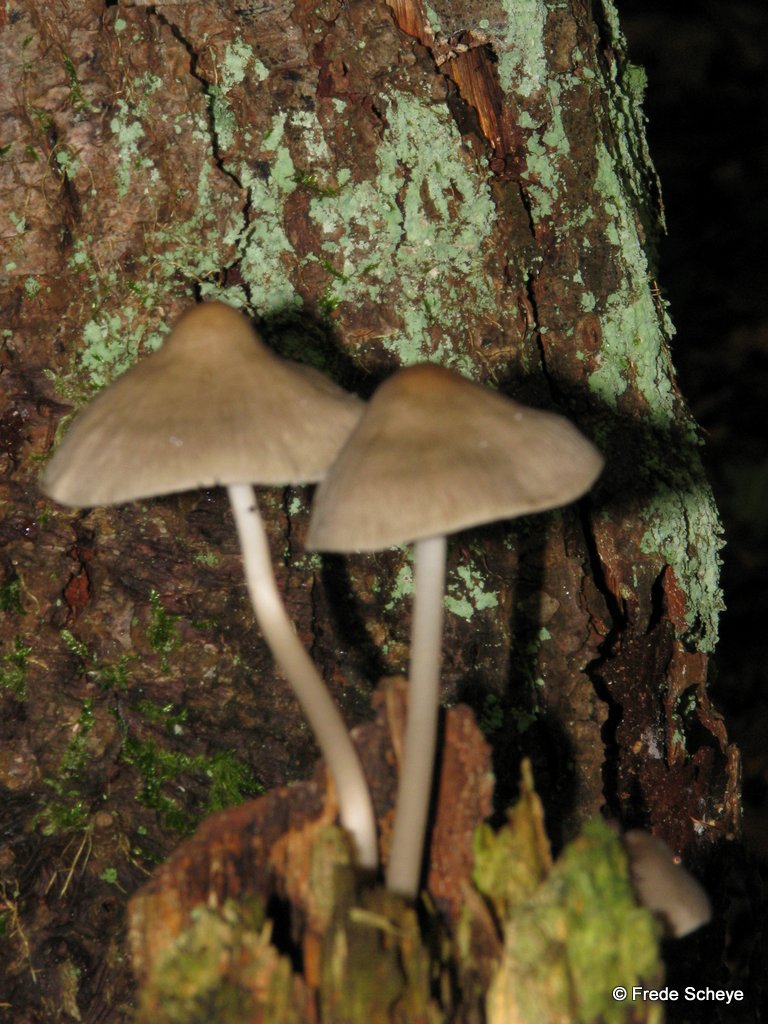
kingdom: Fungi
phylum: Basidiomycota
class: Agaricomycetes
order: Agaricales
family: Mycenaceae
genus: Mycena
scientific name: Mycena galericulata
